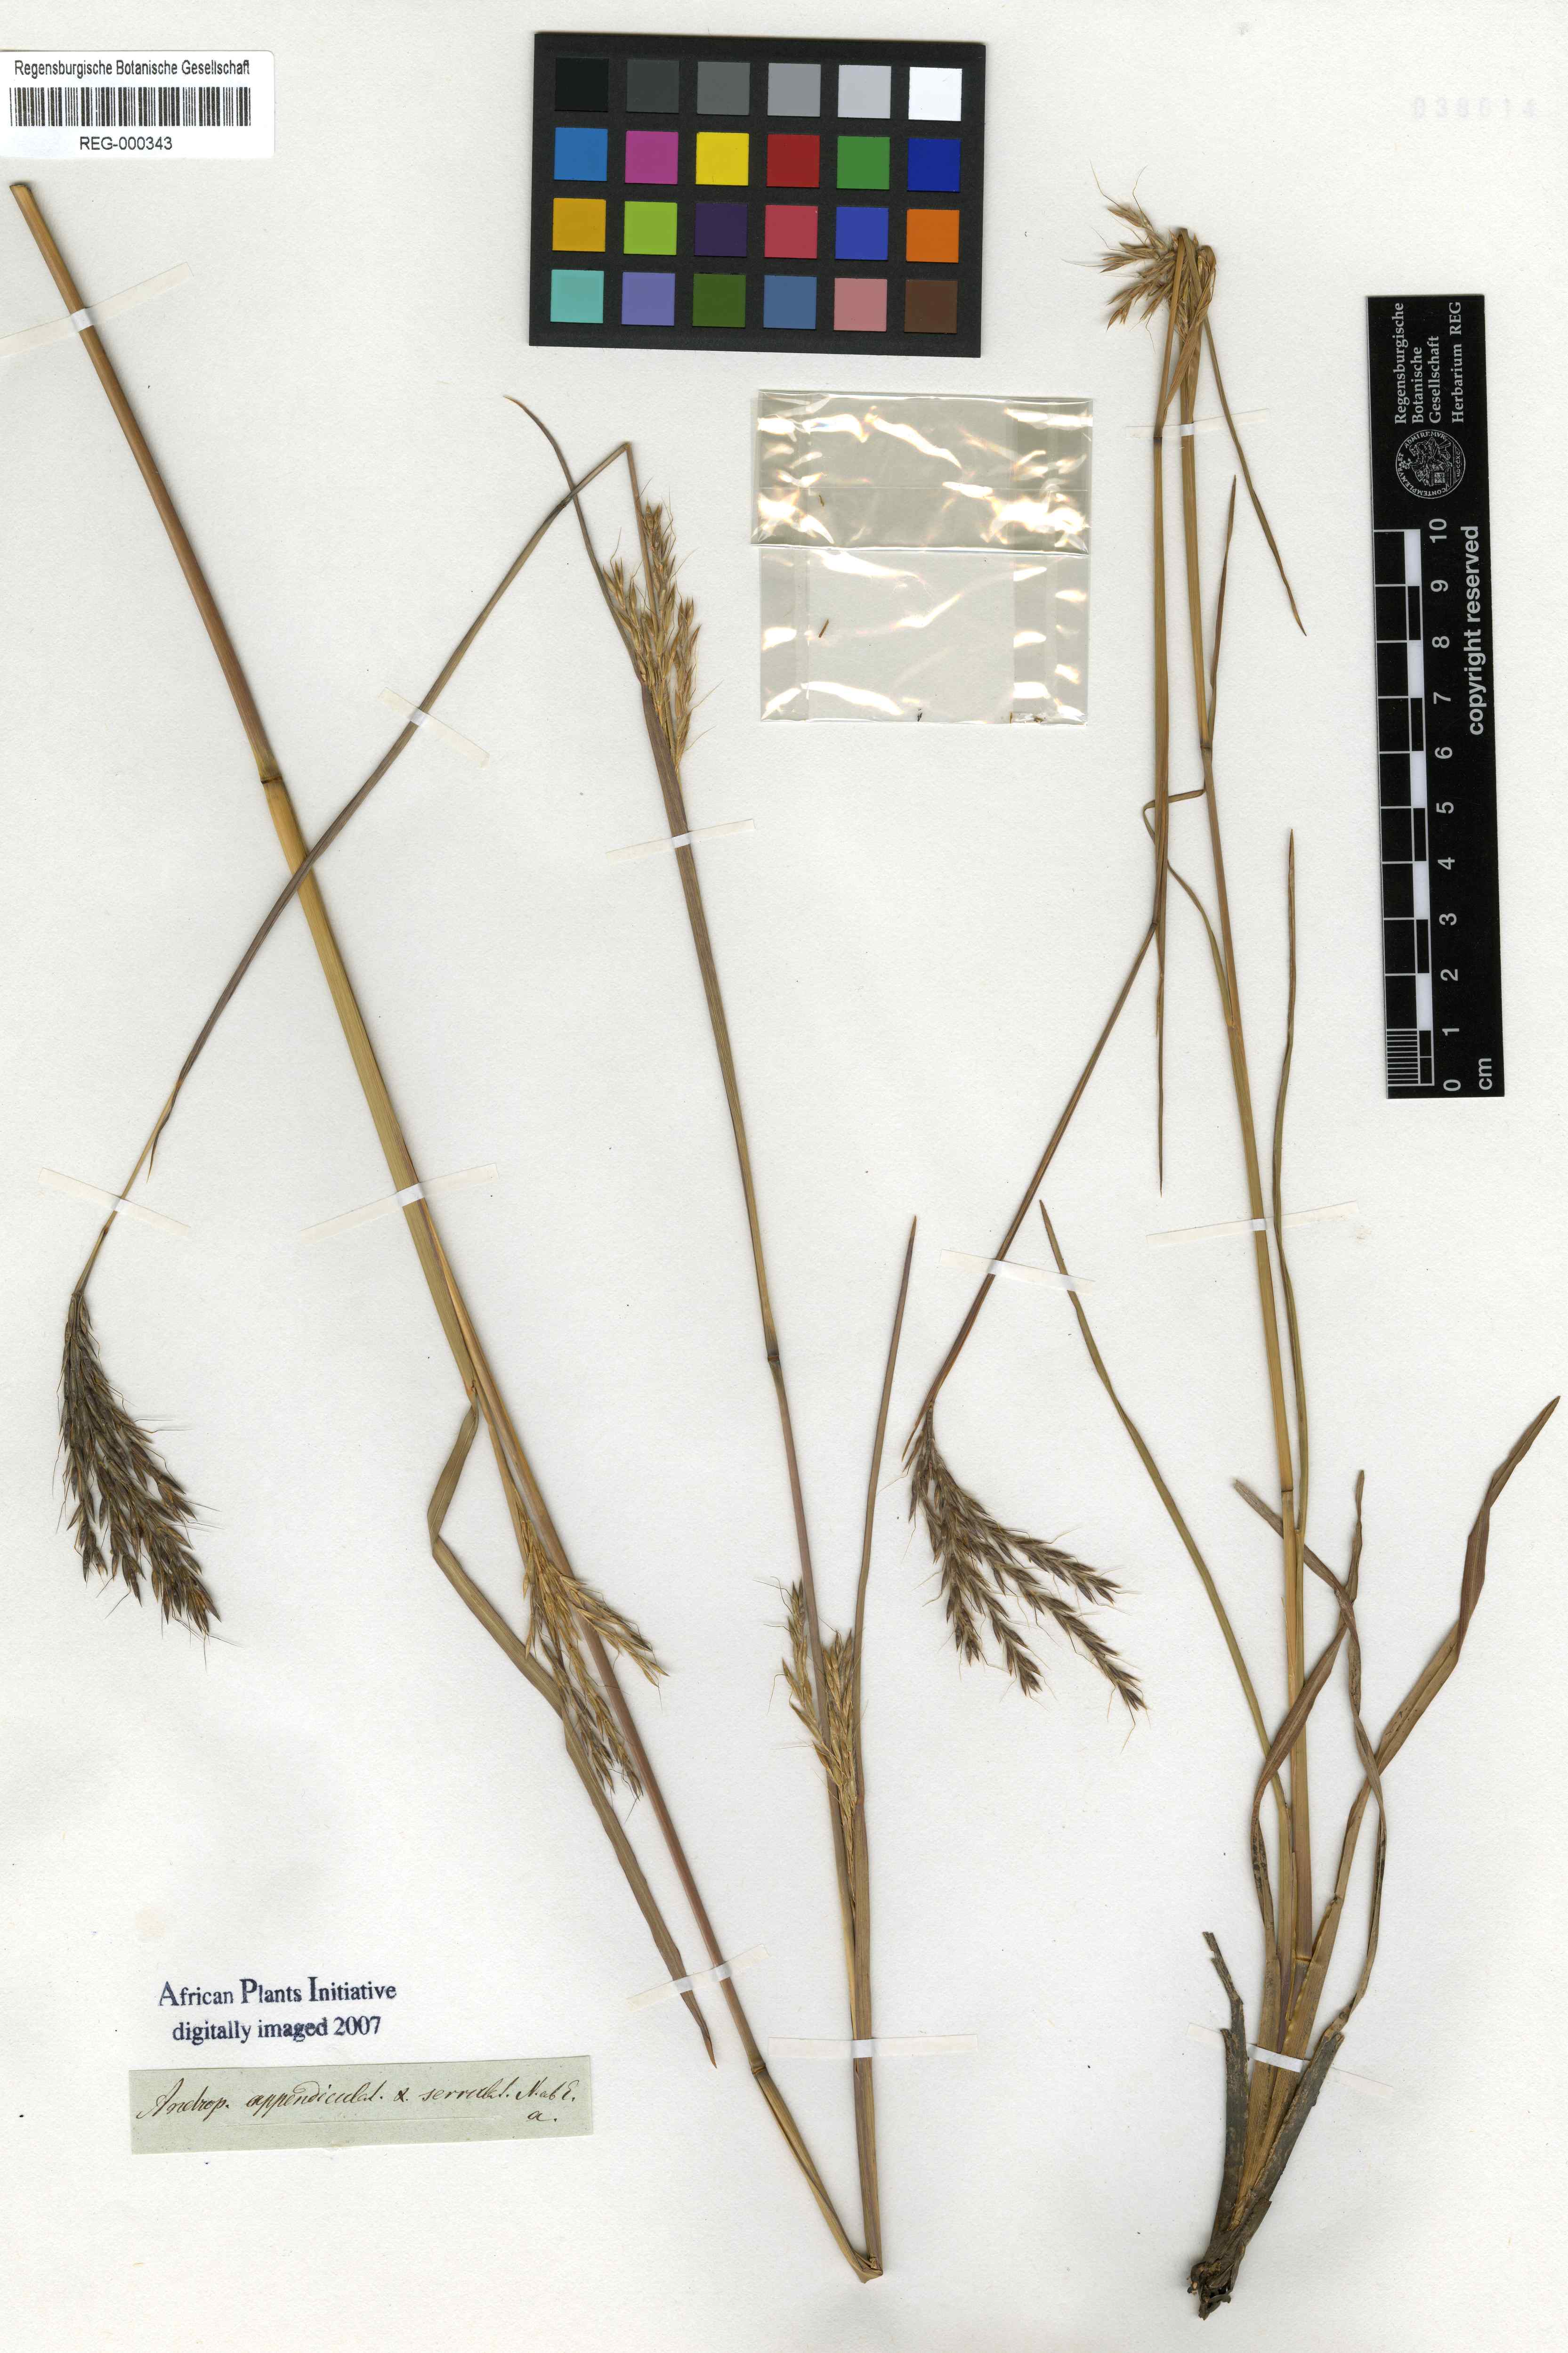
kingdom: Plantae
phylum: Tracheophyta
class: Liliopsida
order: Poales
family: Poaceae
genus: Arthraxon
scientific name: Arthraxon lanceolatus
